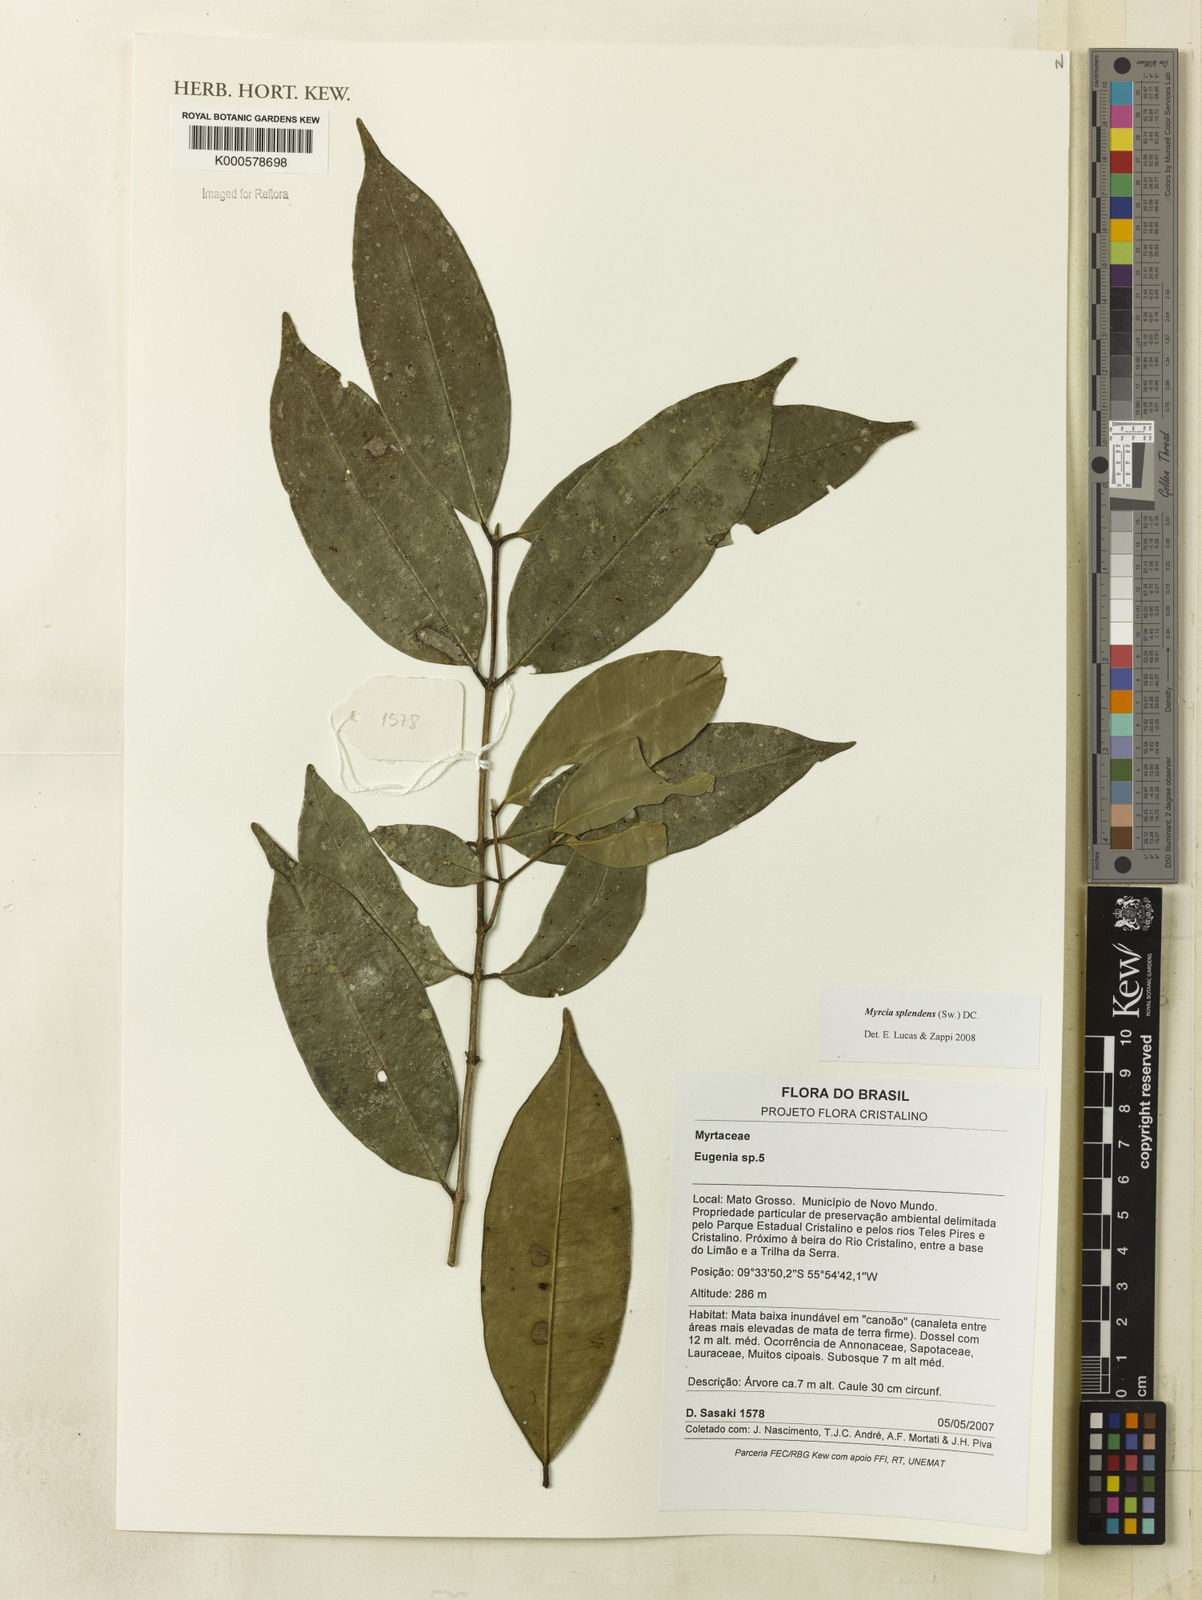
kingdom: Plantae
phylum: Tracheophyta
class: Magnoliopsida
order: Myrtales
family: Myrtaceae
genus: Myrcia
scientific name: Myrcia splendens
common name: Surinam cherry
